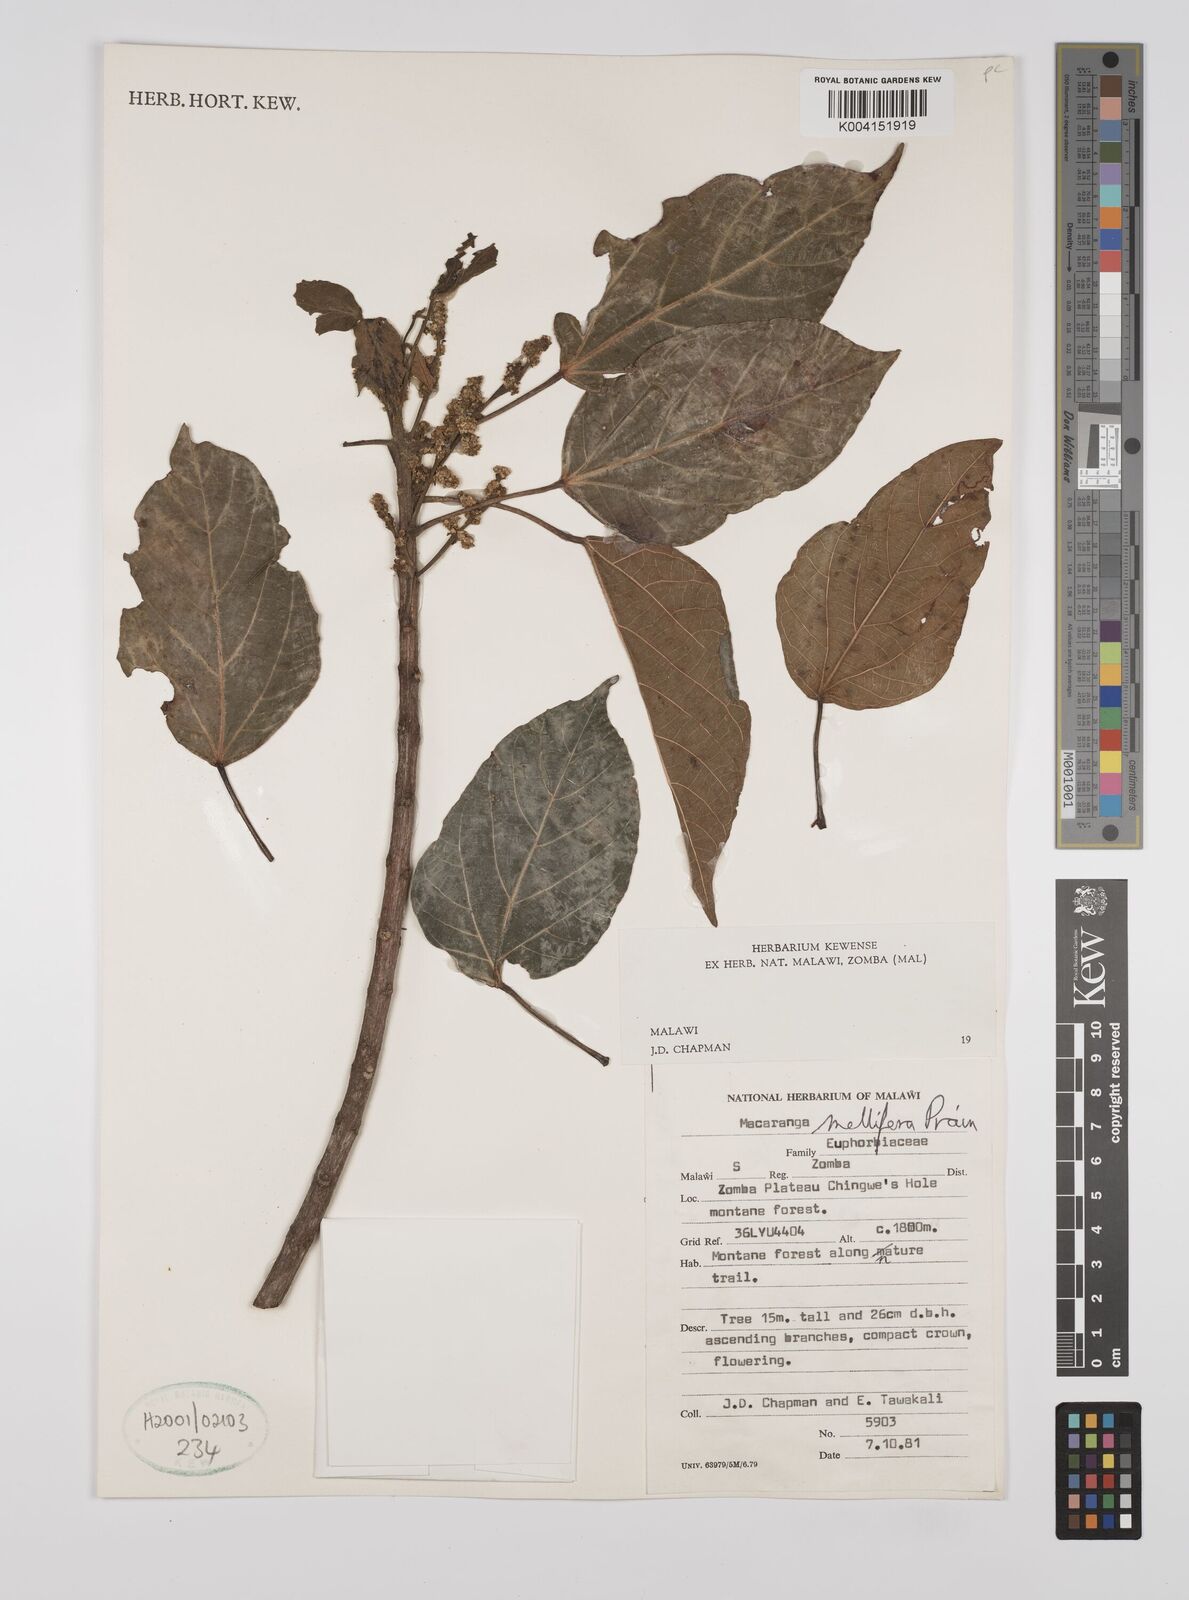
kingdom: Plantae
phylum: Tracheophyta
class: Magnoliopsida
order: Malpighiales
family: Euphorbiaceae
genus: Macaranga
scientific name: Macaranga mellifera
